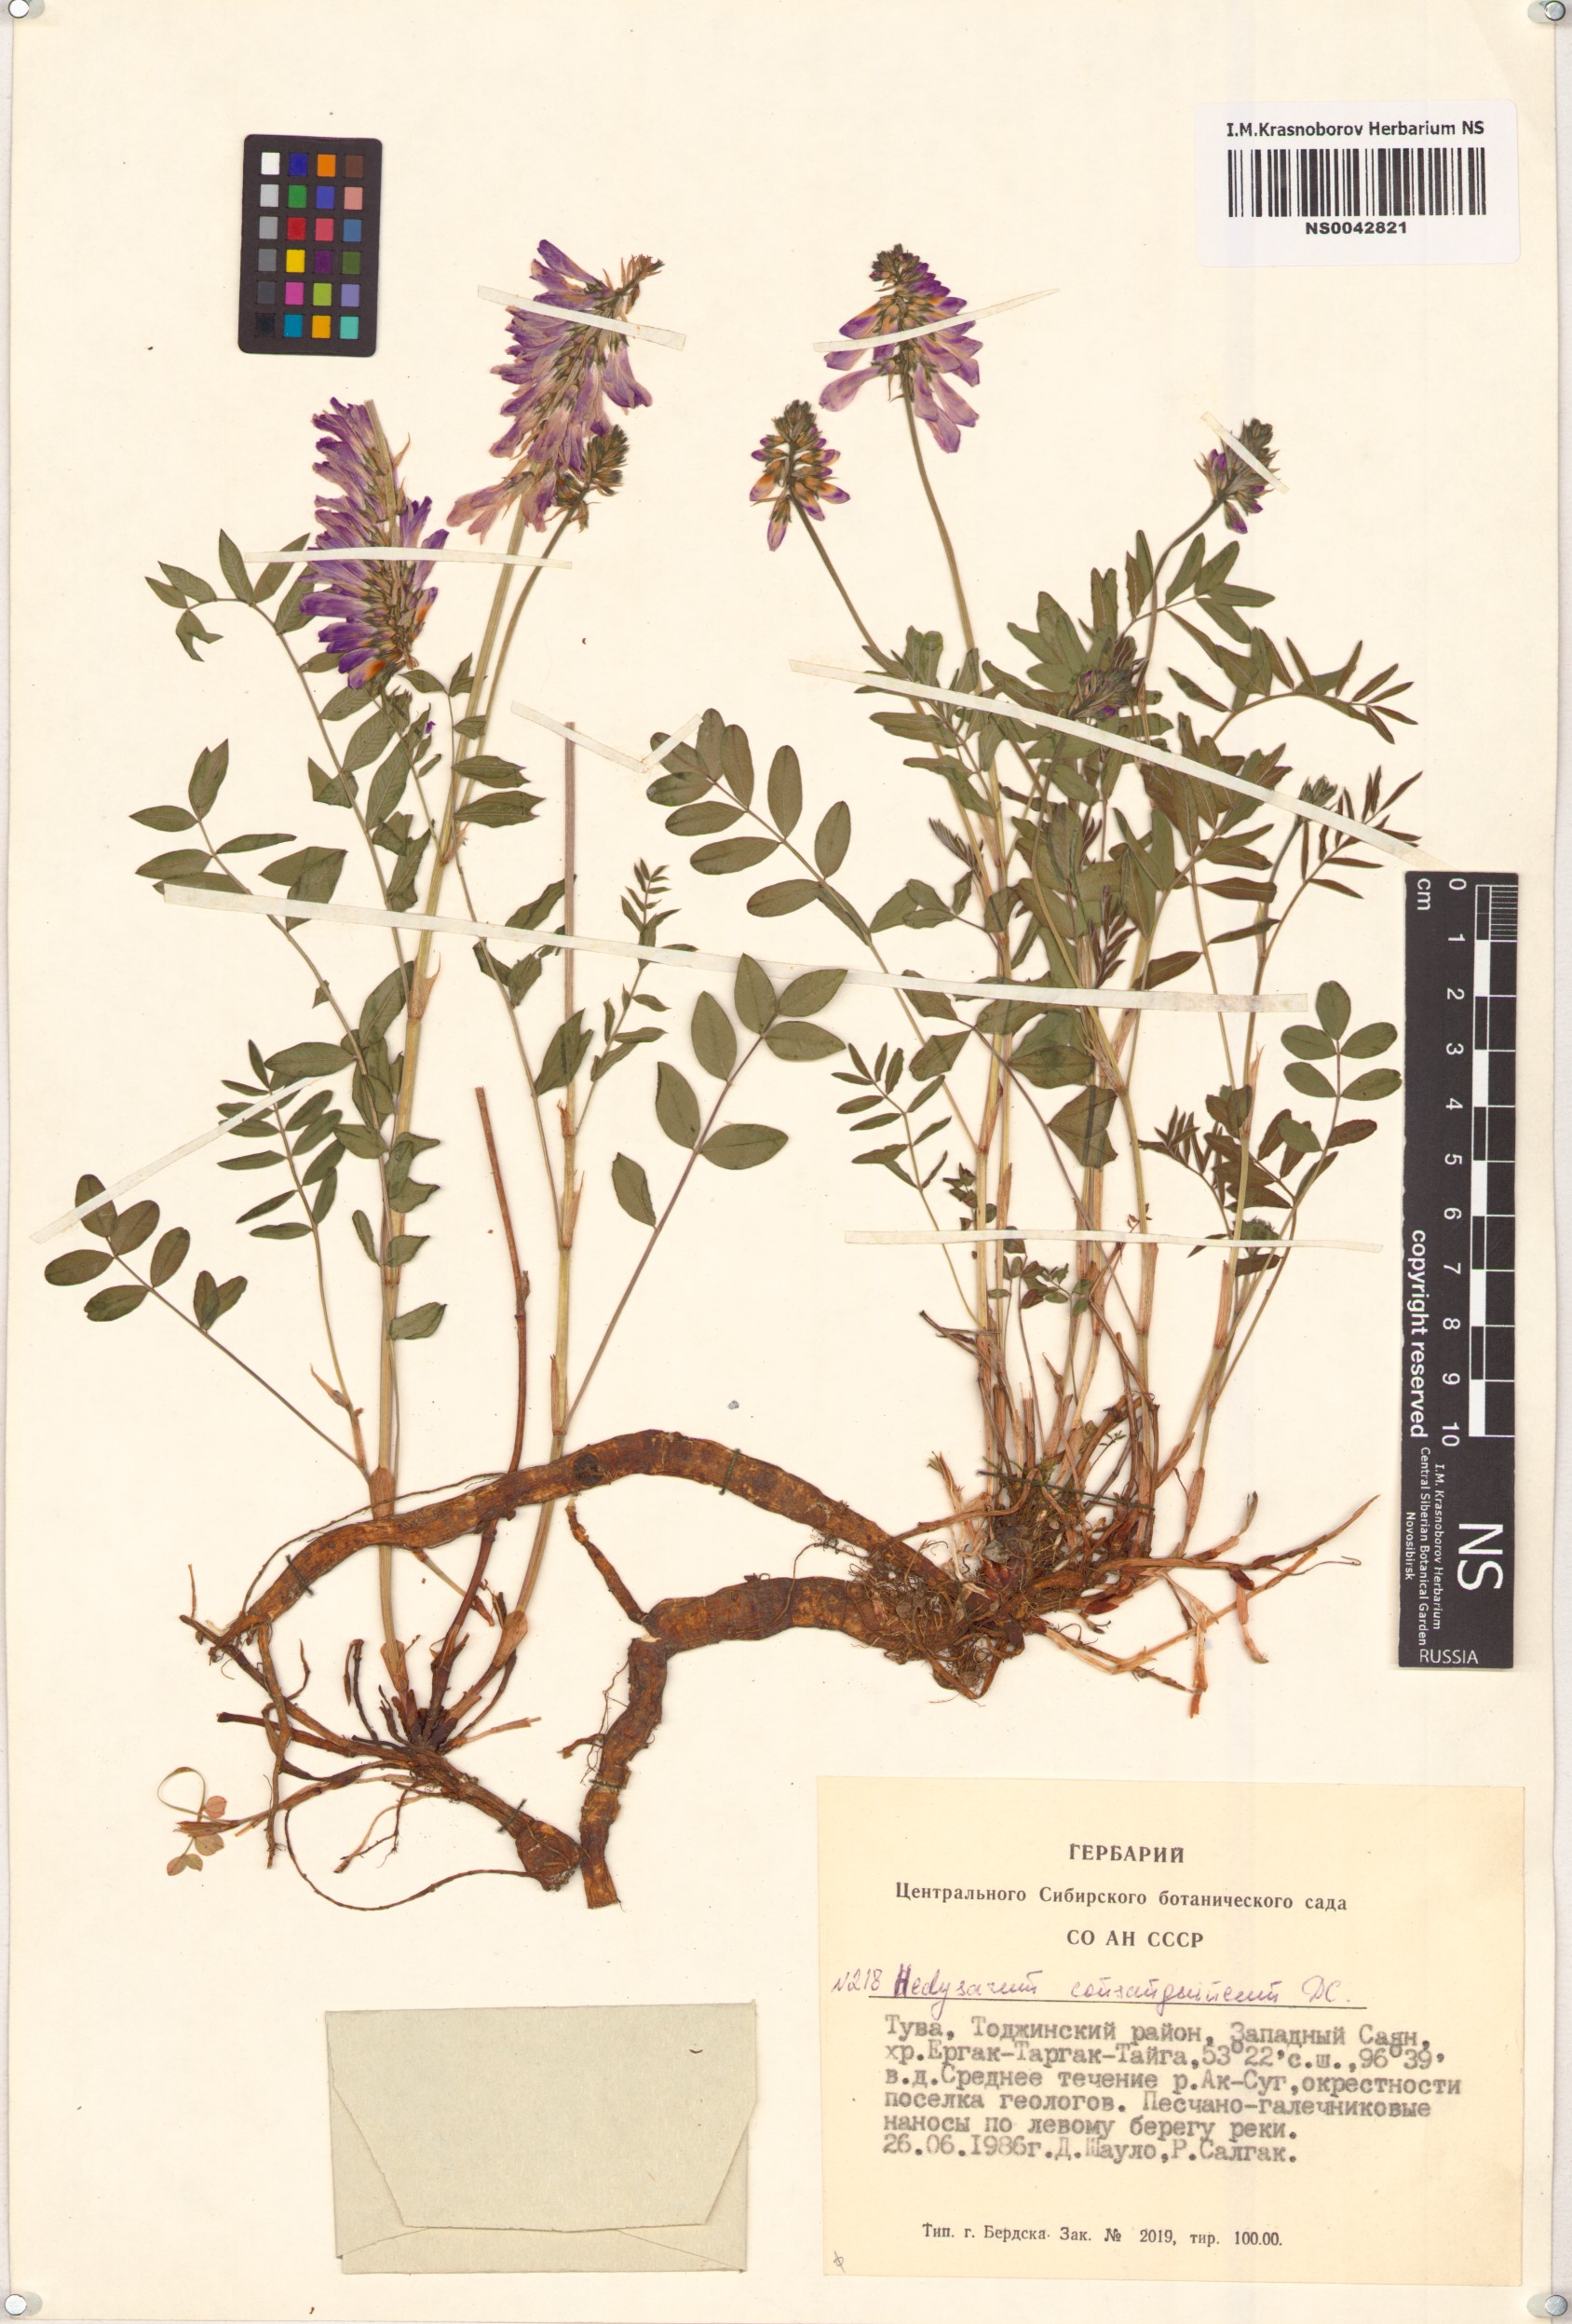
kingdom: Plantae
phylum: Tracheophyta
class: Magnoliopsida
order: Fabales
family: Fabaceae
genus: Hedysarum
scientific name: Hedysarum consanguineum
